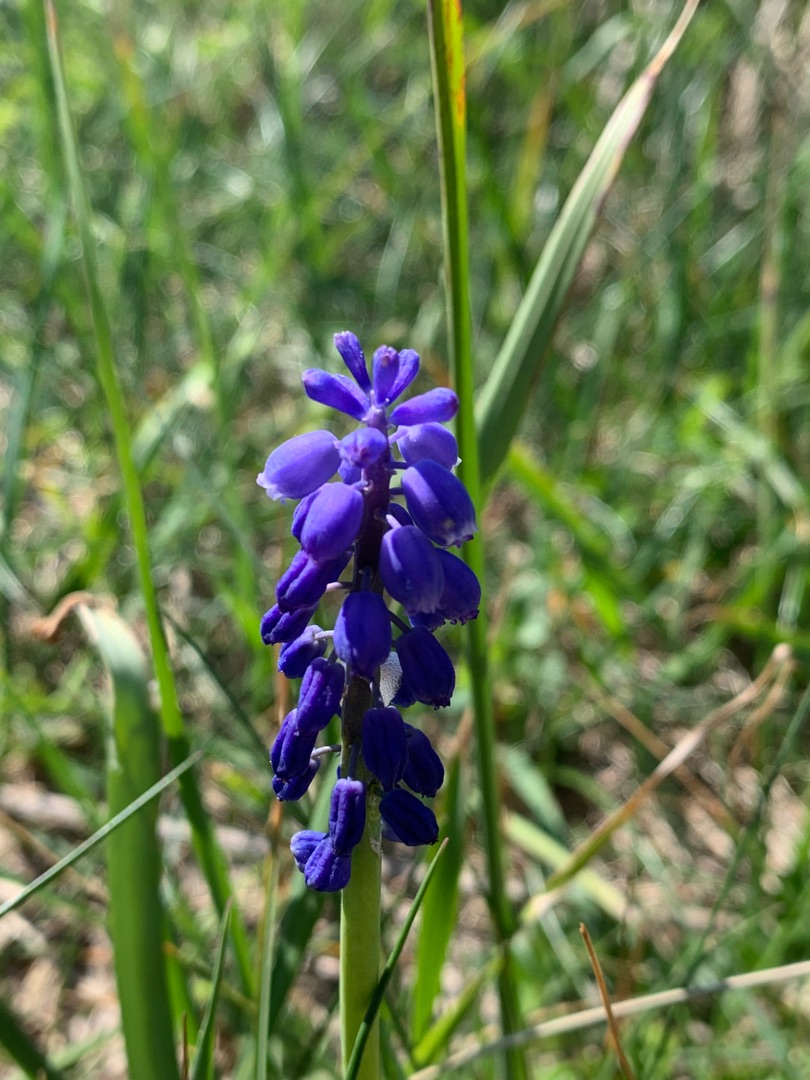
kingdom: Plantae
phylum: Tracheophyta
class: Liliopsida
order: Asparagales
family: Asparagaceae
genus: Muscari
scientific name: Muscari armeniacum
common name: Armensk perlehyacint
